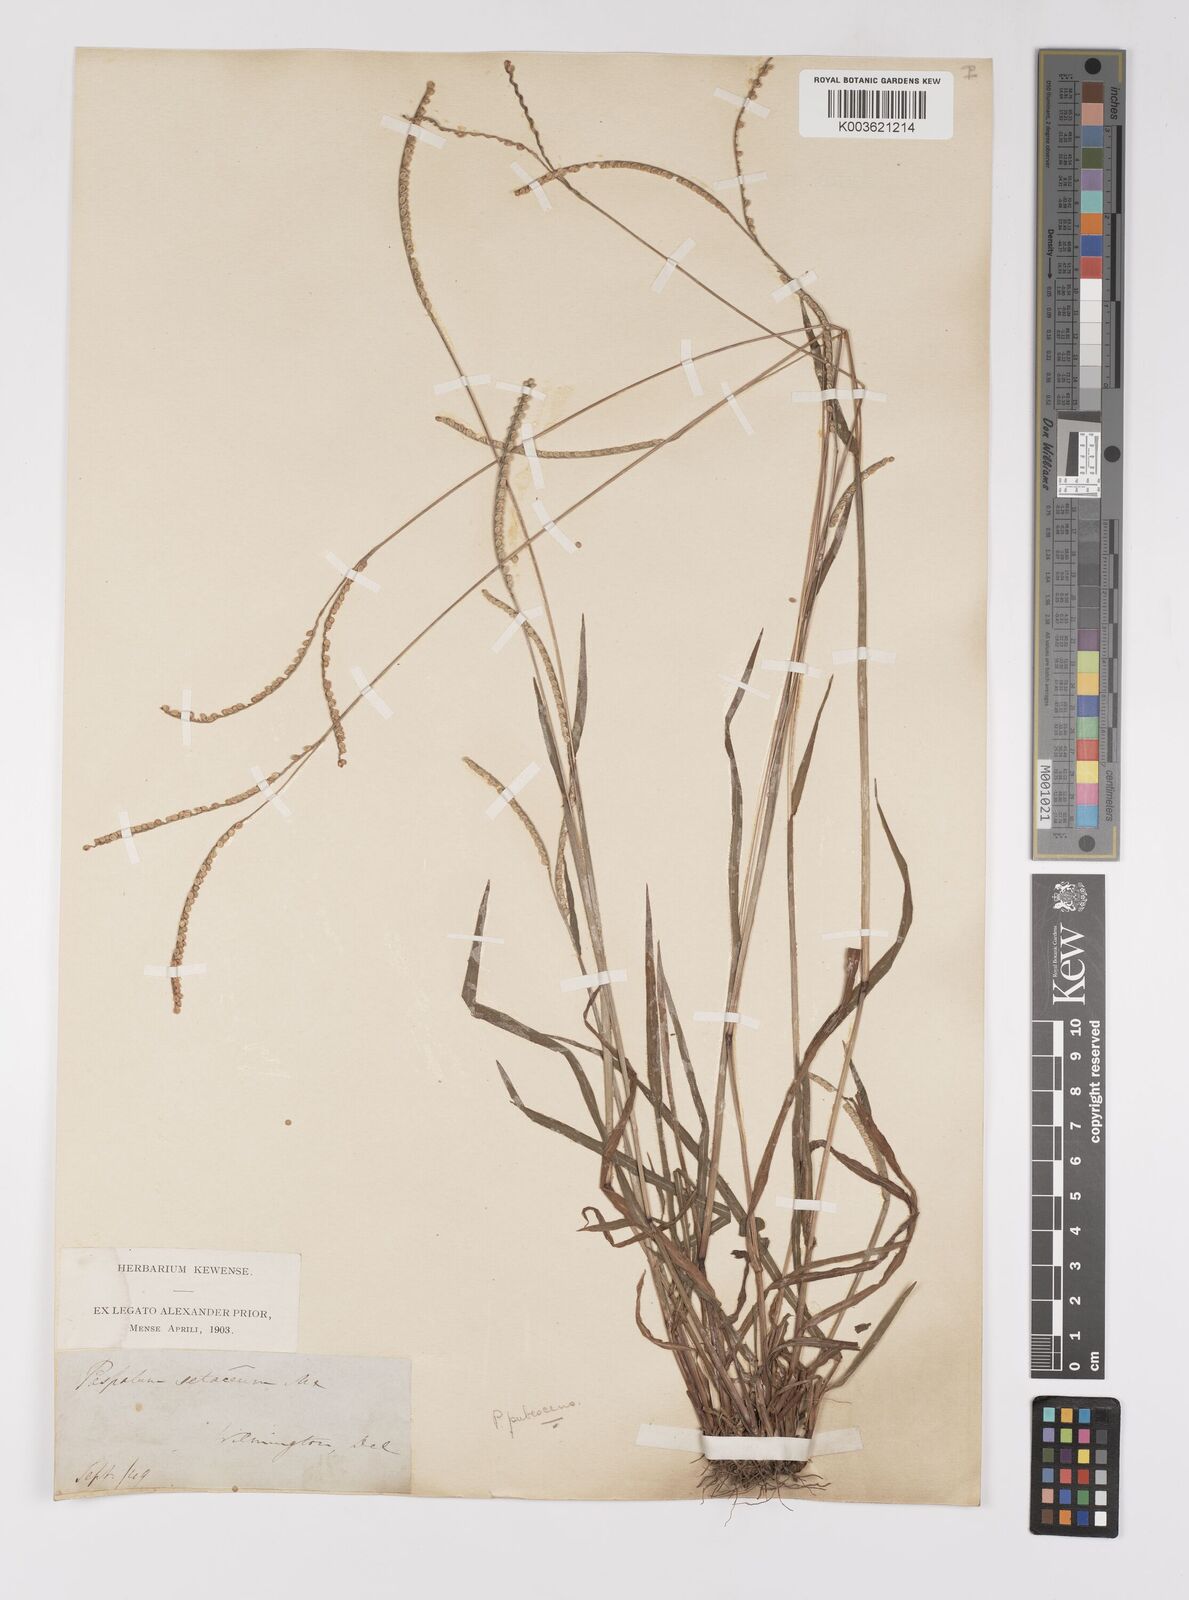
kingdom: Plantae
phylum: Tracheophyta
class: Liliopsida
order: Poales
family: Poaceae
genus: Paspalum
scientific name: Paspalum setaceum
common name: Slender paspalum
